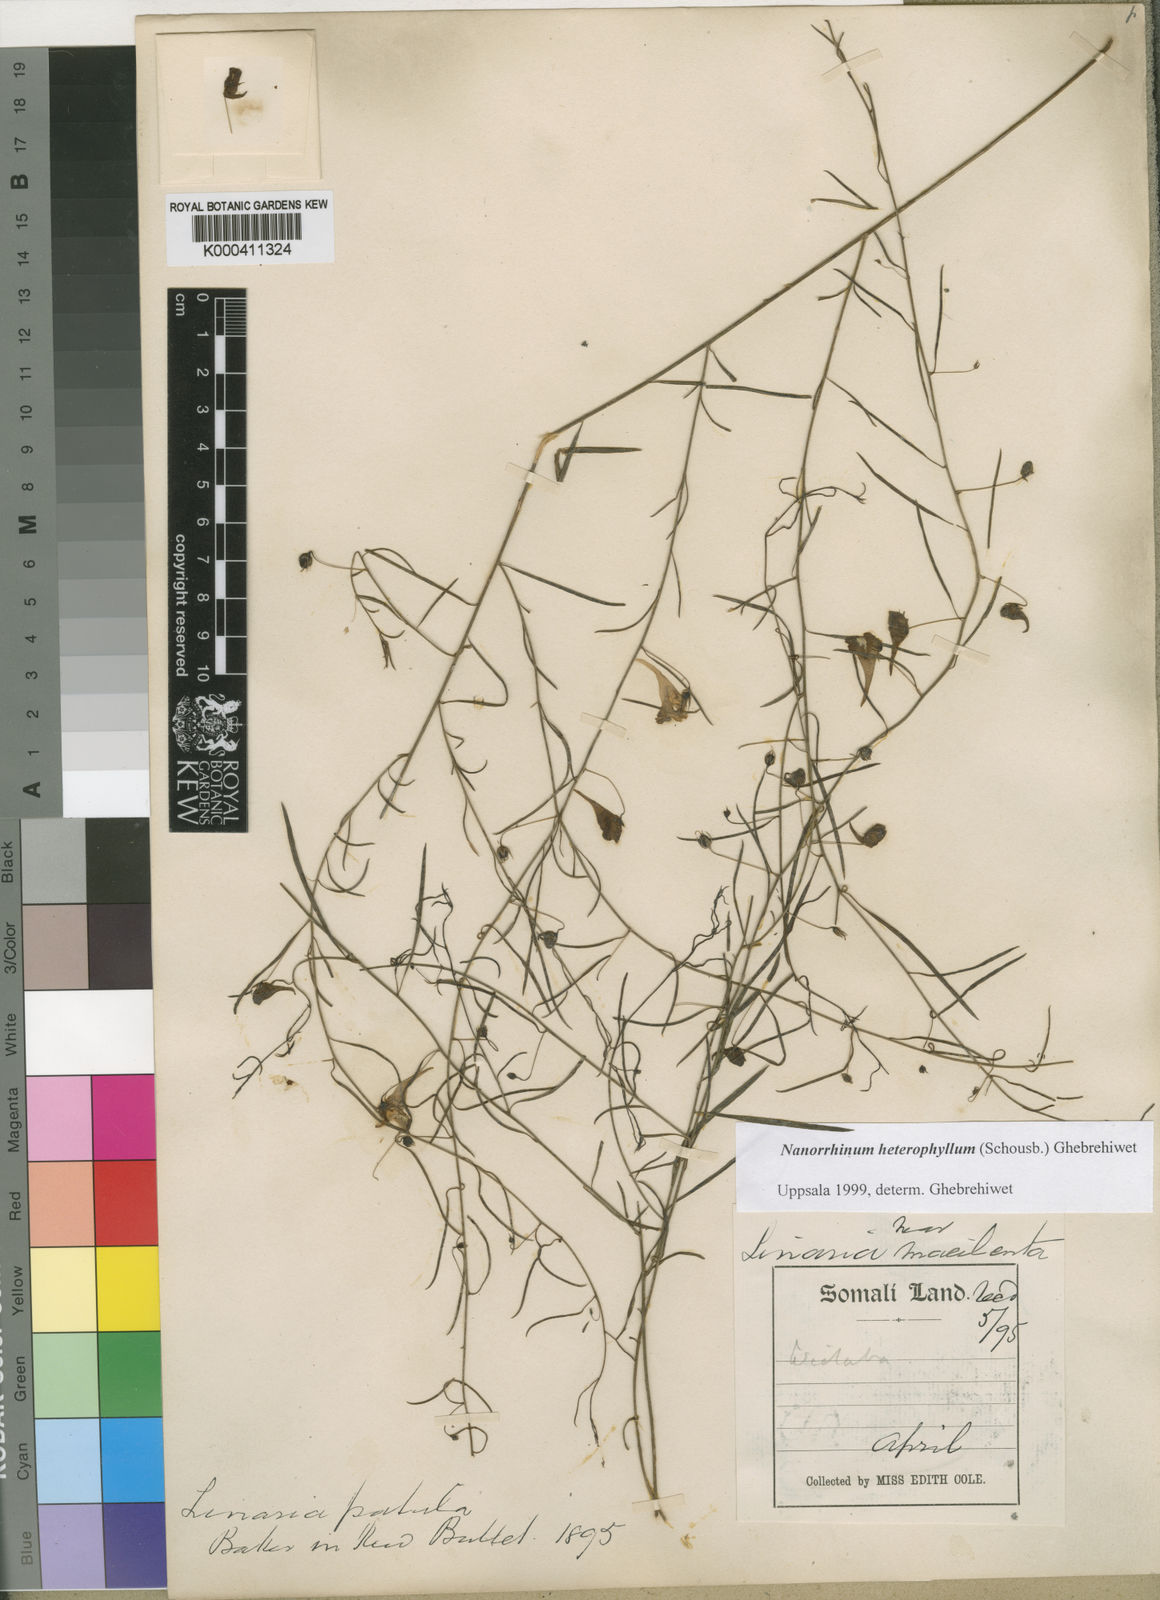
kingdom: Plantae
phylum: Tracheophyta
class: Magnoliopsida
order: Lamiales
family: Plantaginaceae
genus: Nanorrhinum
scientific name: Nanorrhinum heterophyllum
